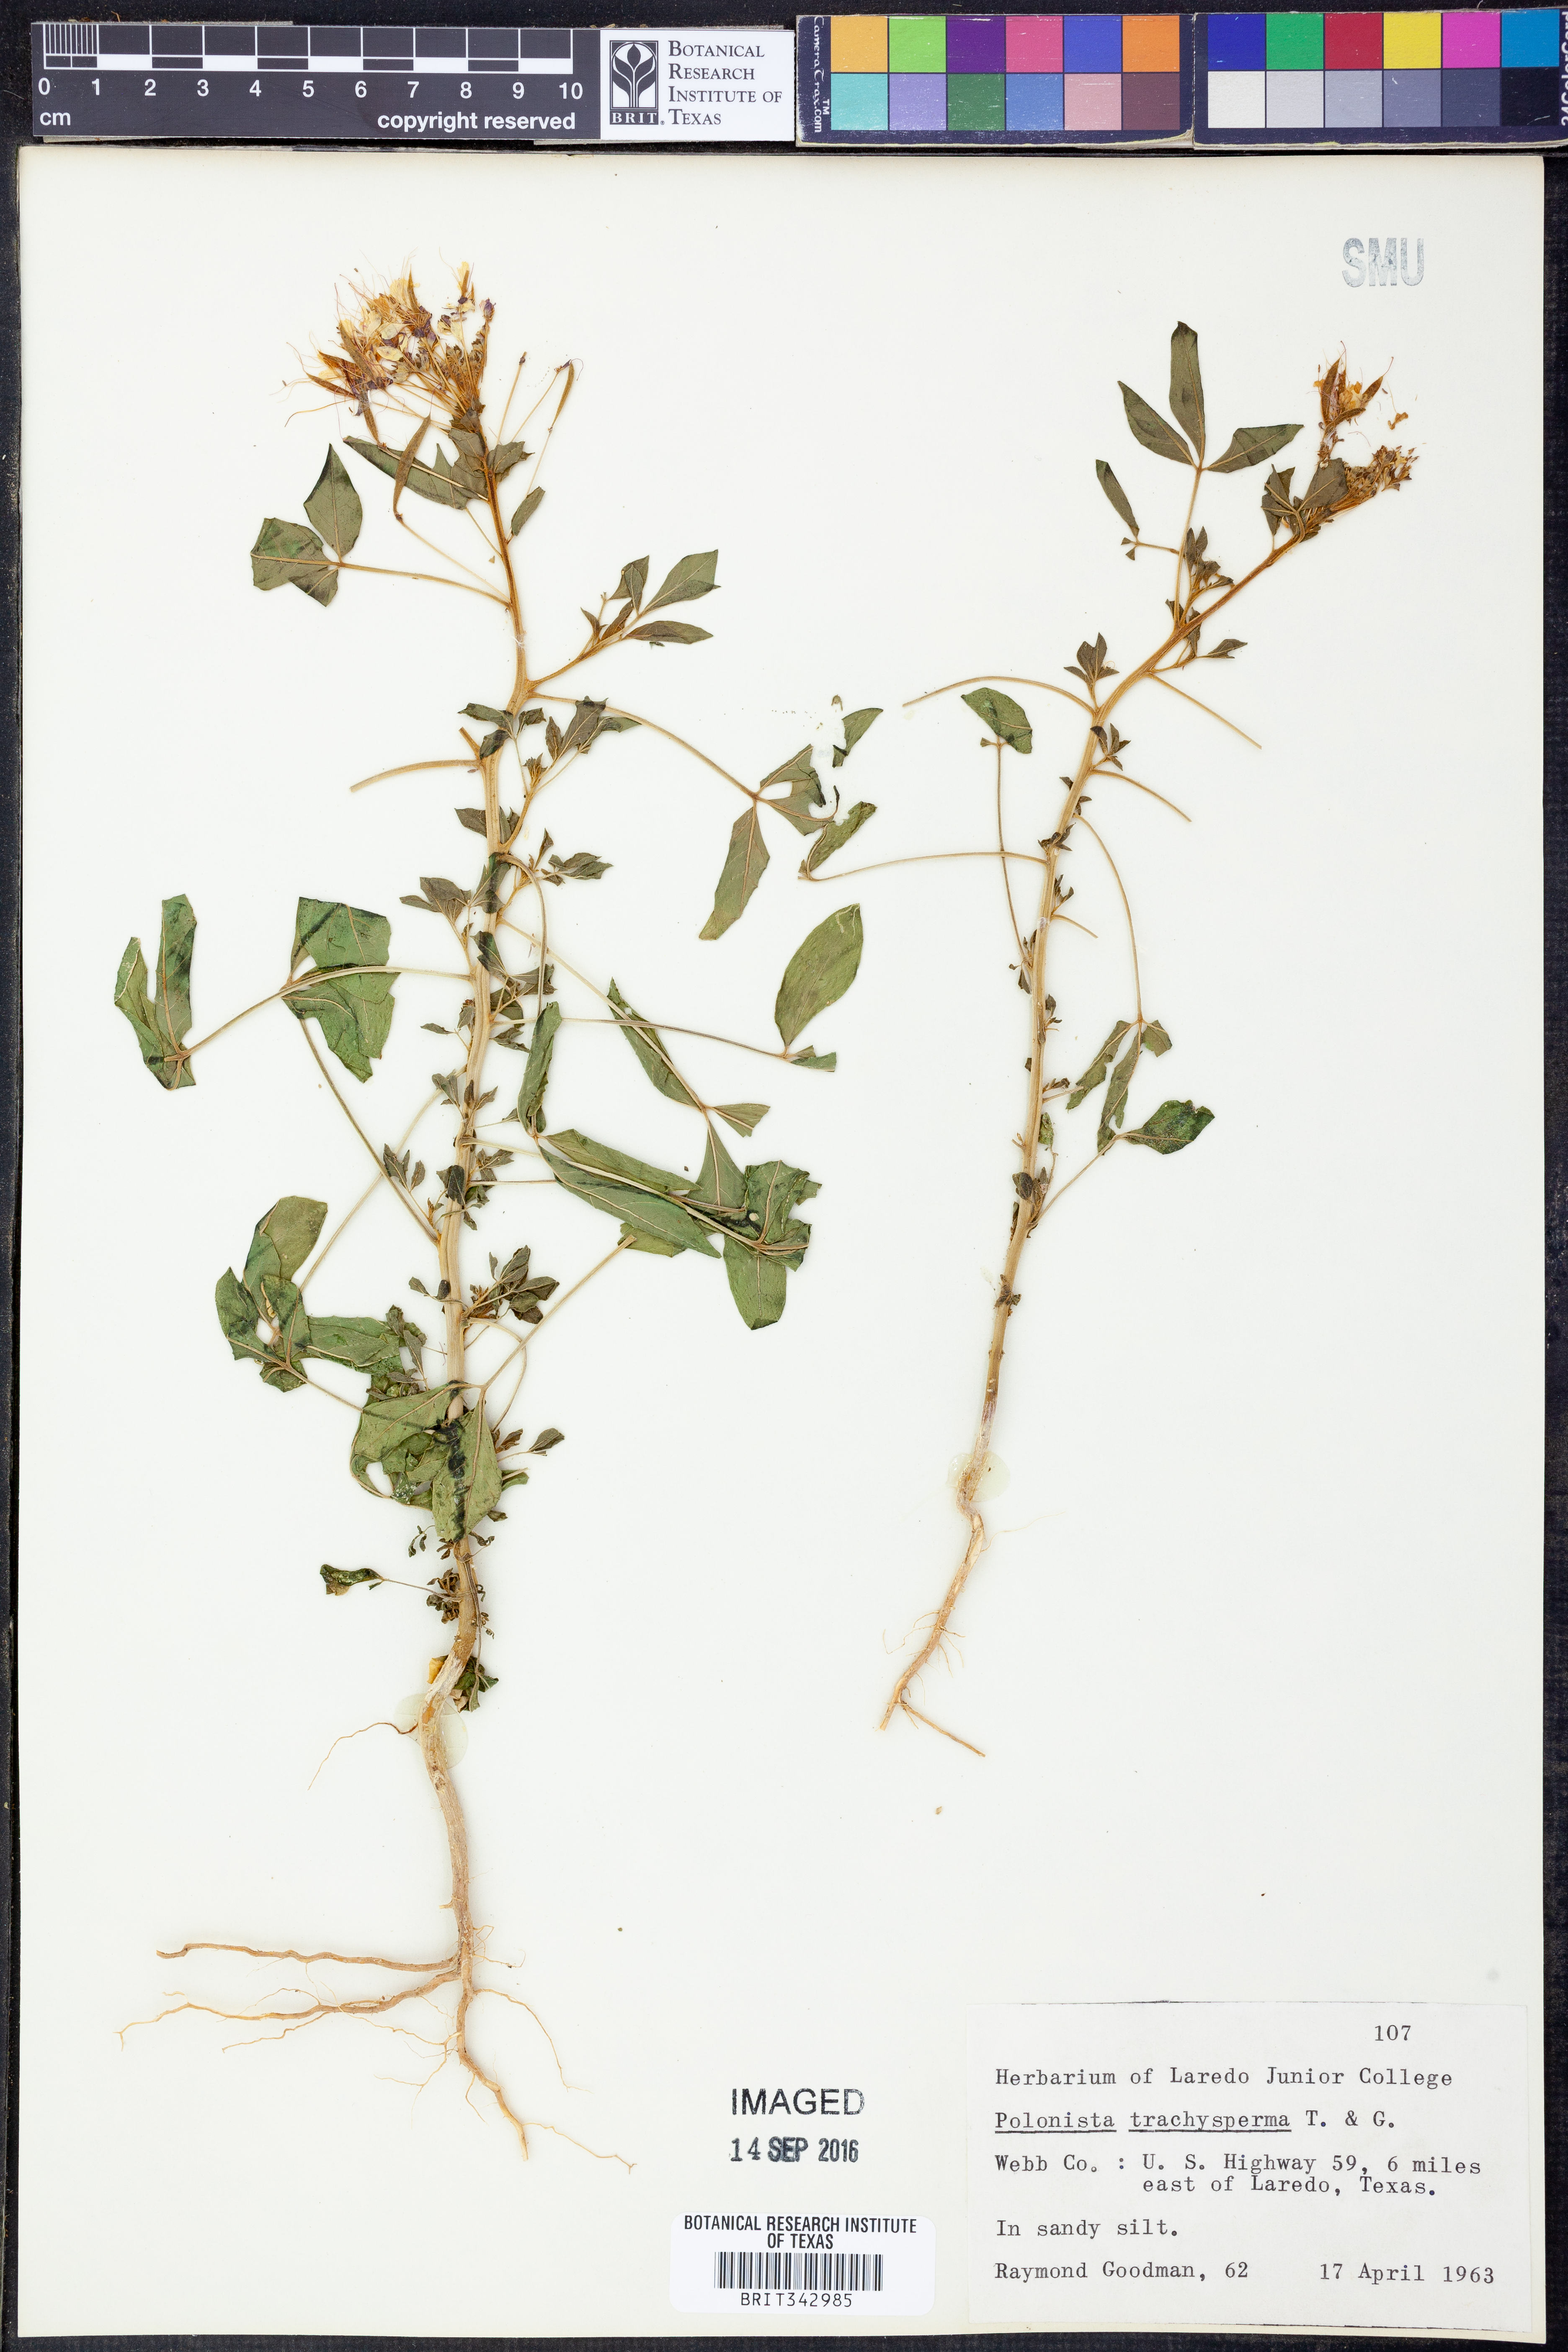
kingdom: Plantae
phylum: Tracheophyta
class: Magnoliopsida
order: Brassicales
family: Cleomaceae
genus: Polanisia
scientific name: Polanisia trachysperma
